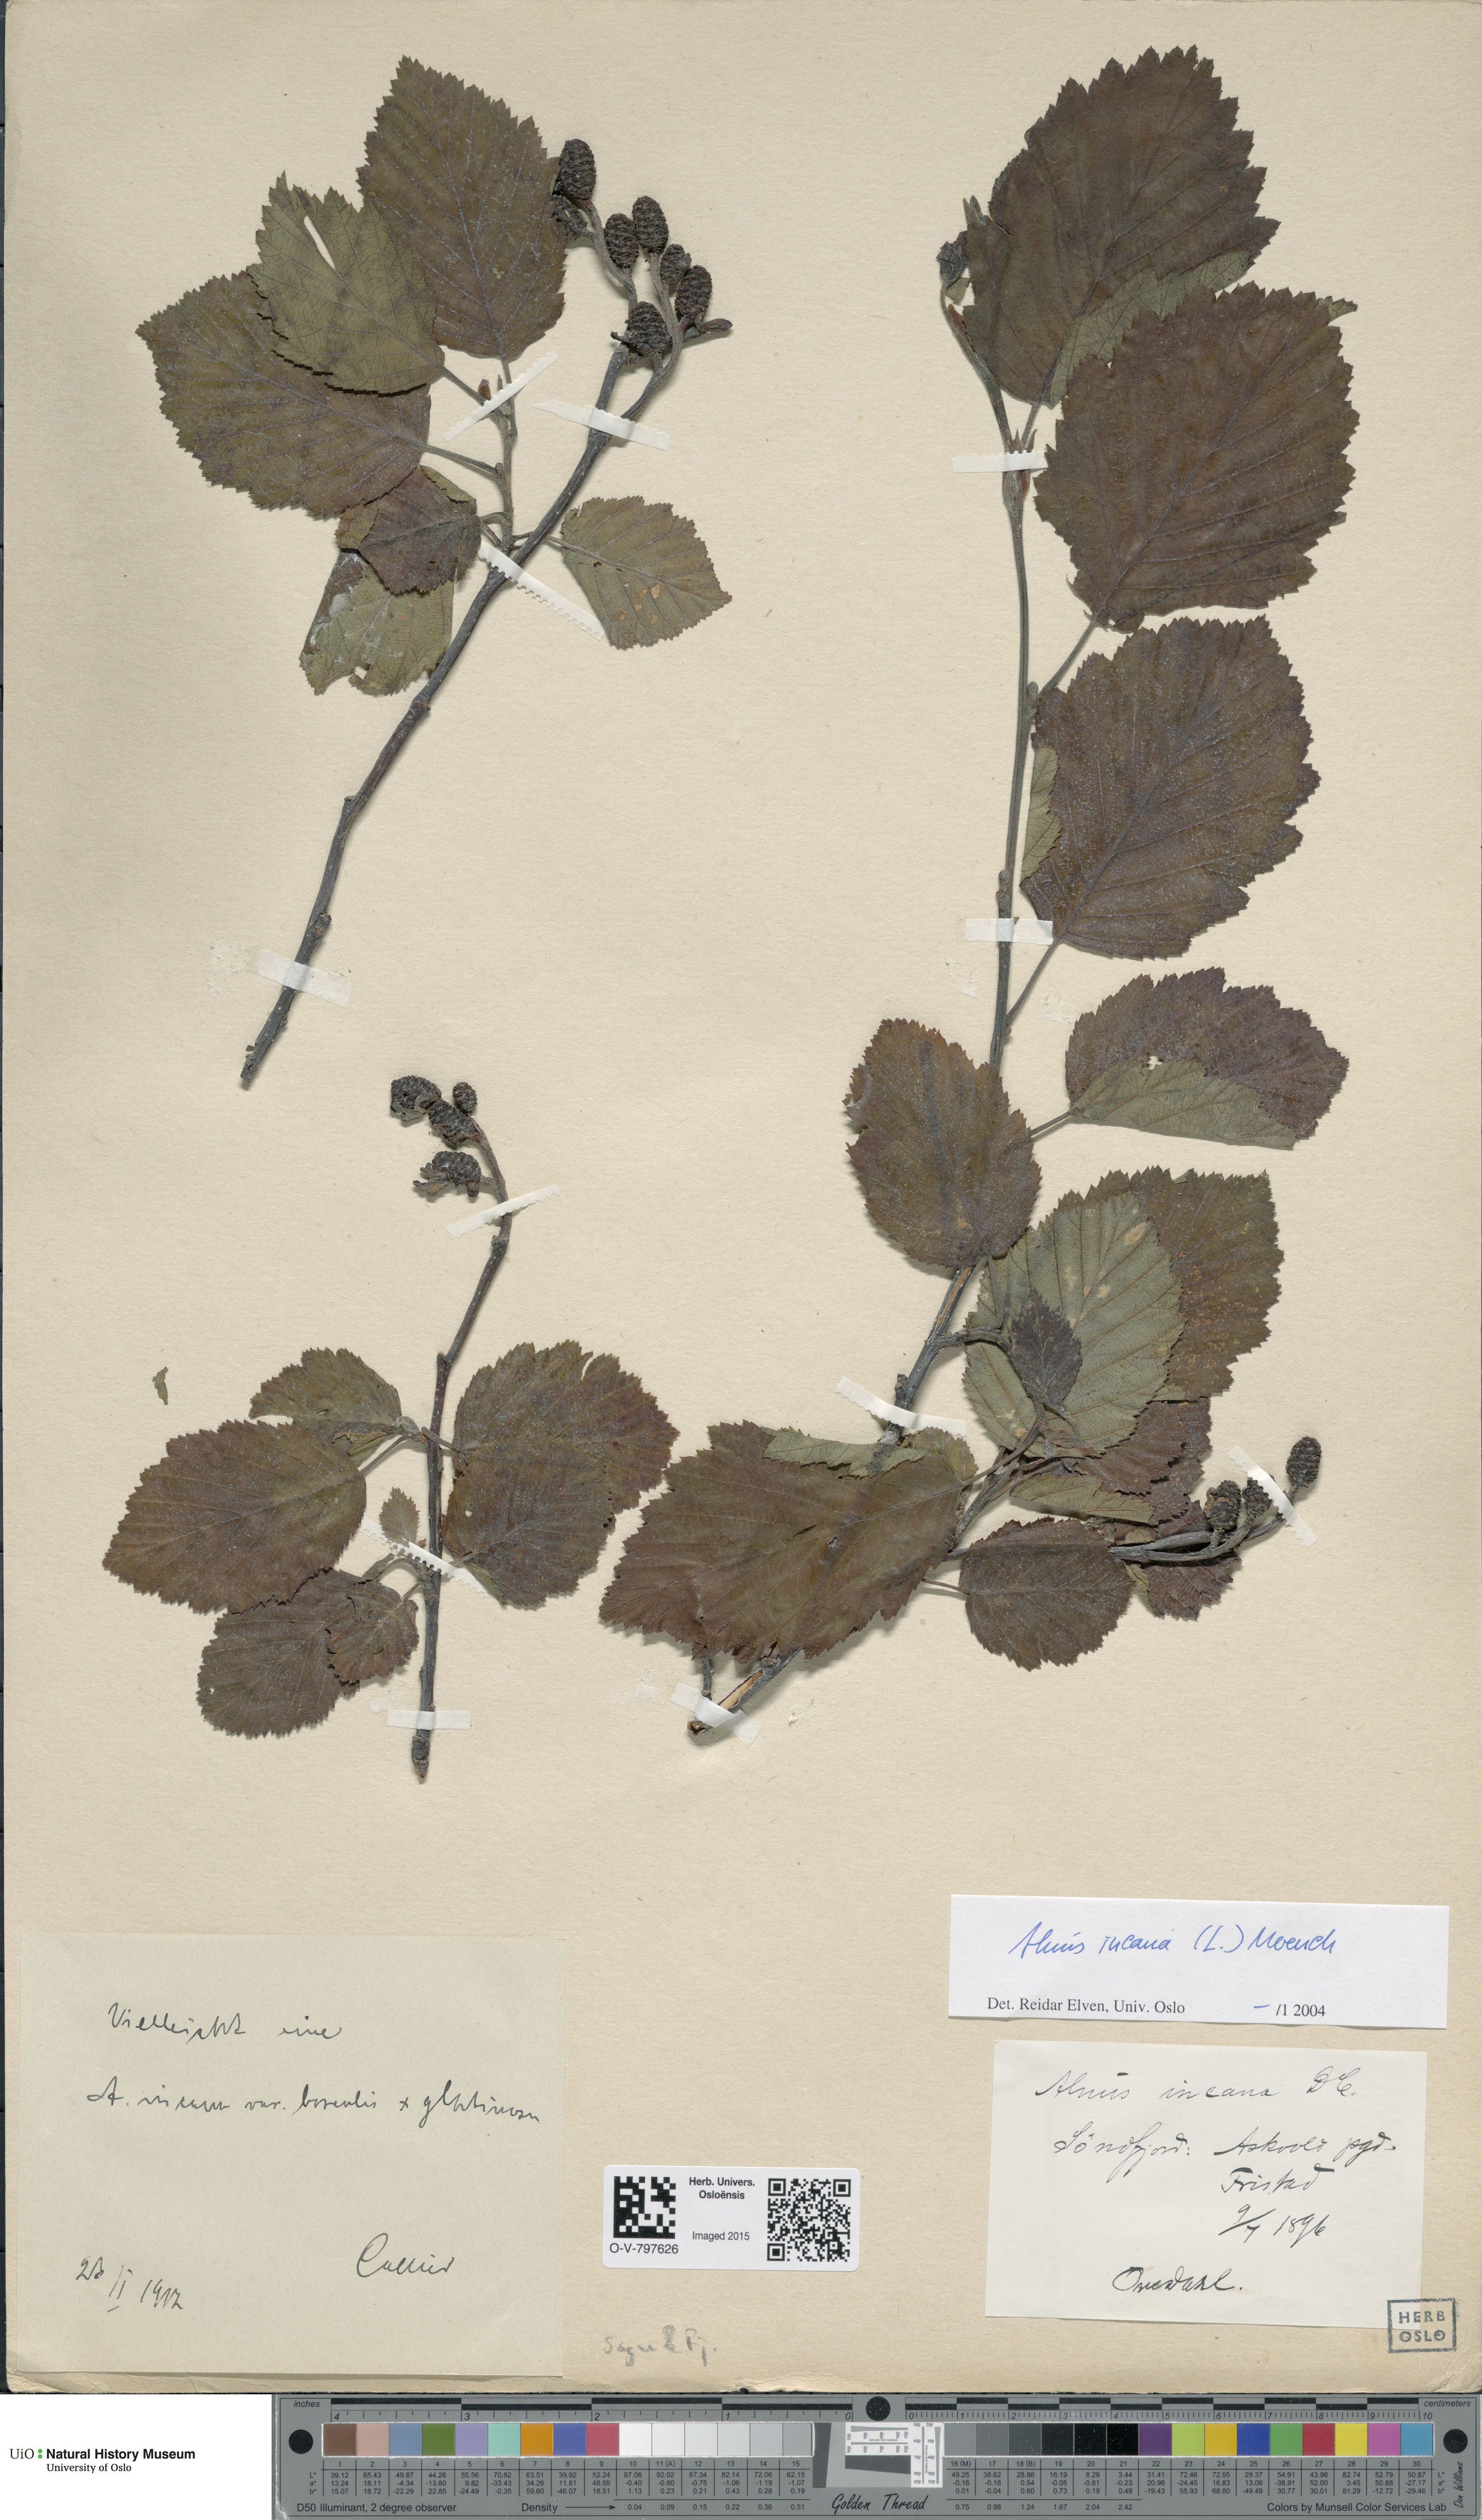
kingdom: Plantae
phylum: Tracheophyta
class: Magnoliopsida
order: Fagales
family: Betulaceae
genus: Alnus
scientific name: Alnus incana
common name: Grey alder
